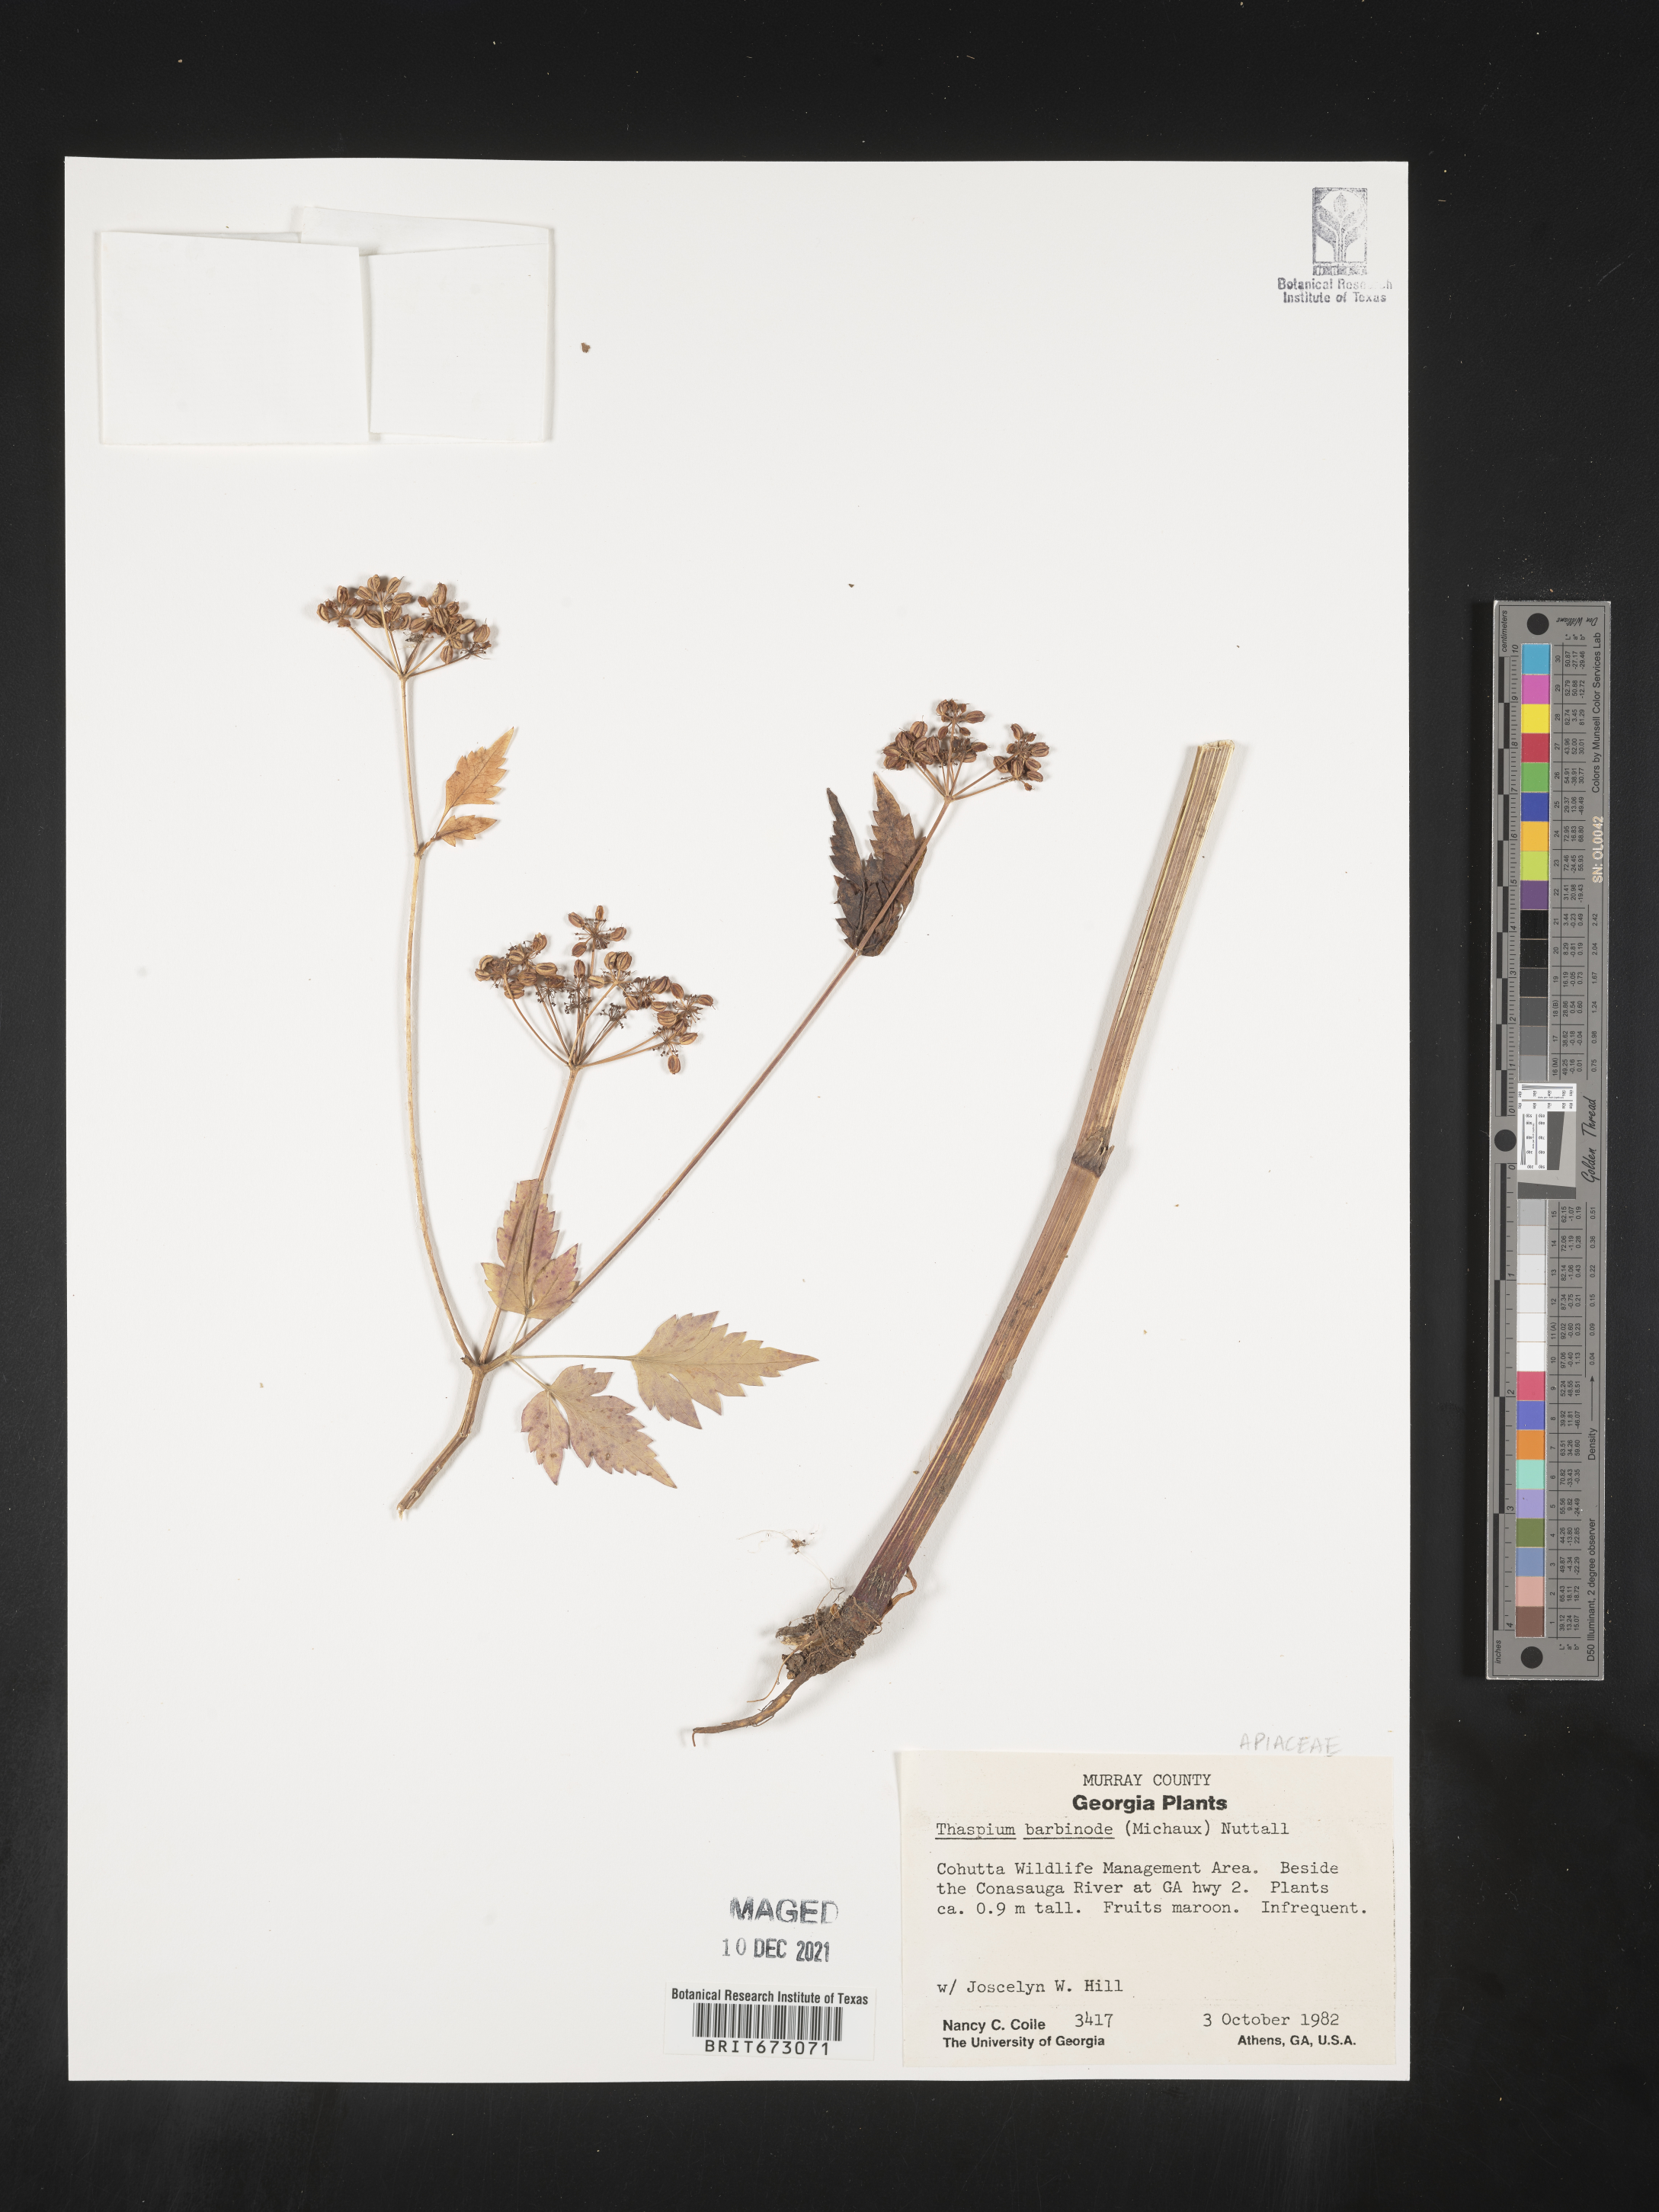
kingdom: Plantae
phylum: Tracheophyta
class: Magnoliopsida
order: Apiales
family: Apiaceae
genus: Thaspium
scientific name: Thaspium barbinode
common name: Bearded meadow-parsnip
